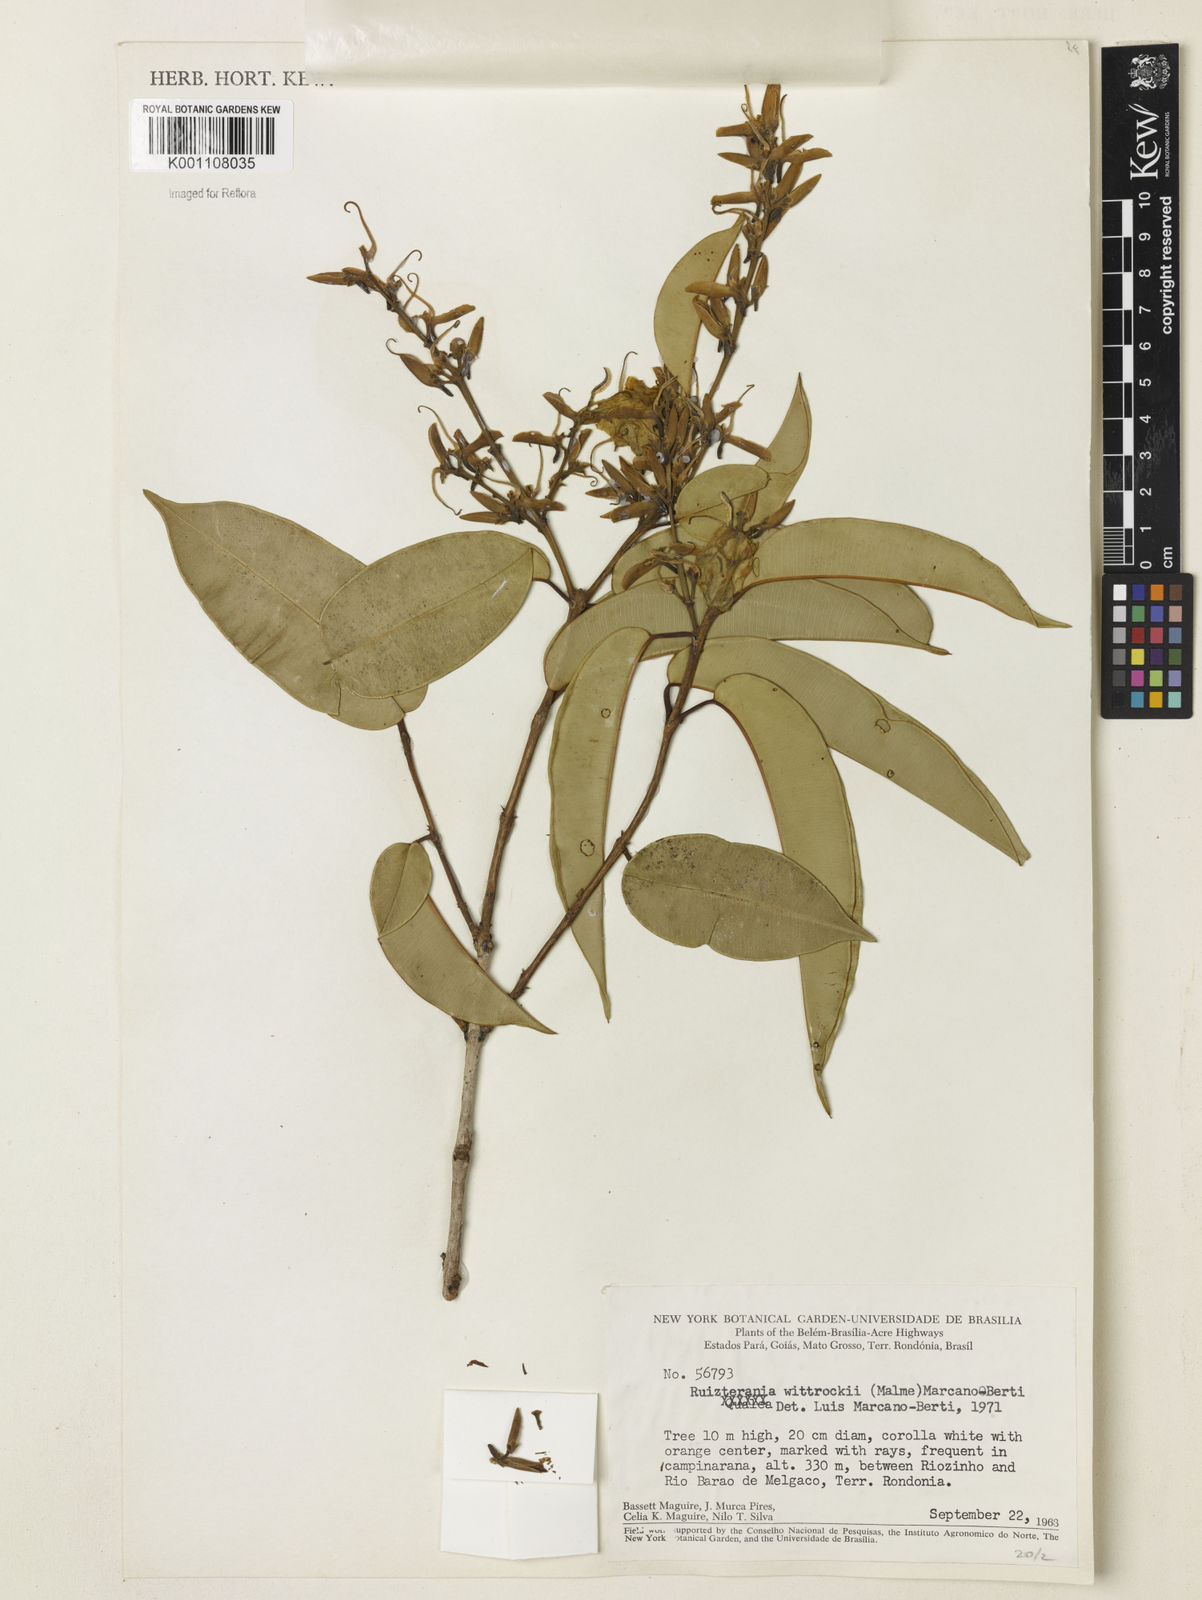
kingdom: Plantae
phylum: Tracheophyta
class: Magnoliopsida
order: Myrtales
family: Vochysiaceae
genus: Ruizterania
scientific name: Ruizterania wittrockii
